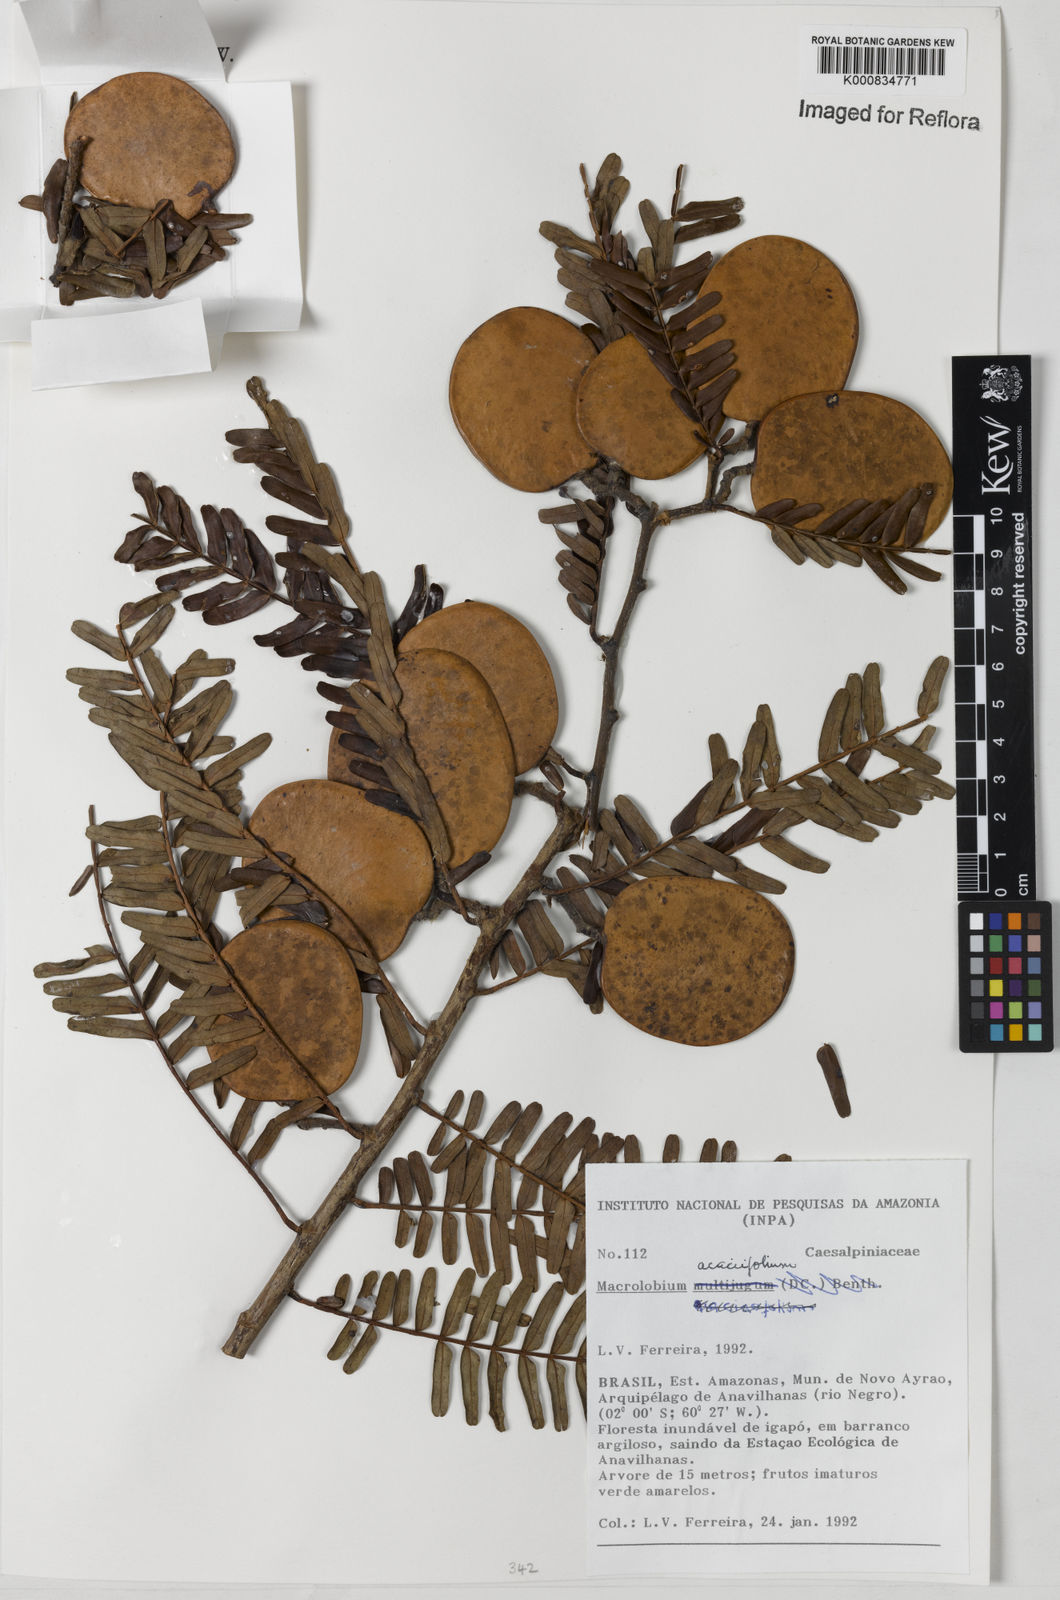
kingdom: Plantae
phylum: Tracheophyta
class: Magnoliopsida
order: Fabales
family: Fabaceae
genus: Macrolobium
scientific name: Macrolobium acaciifolium
